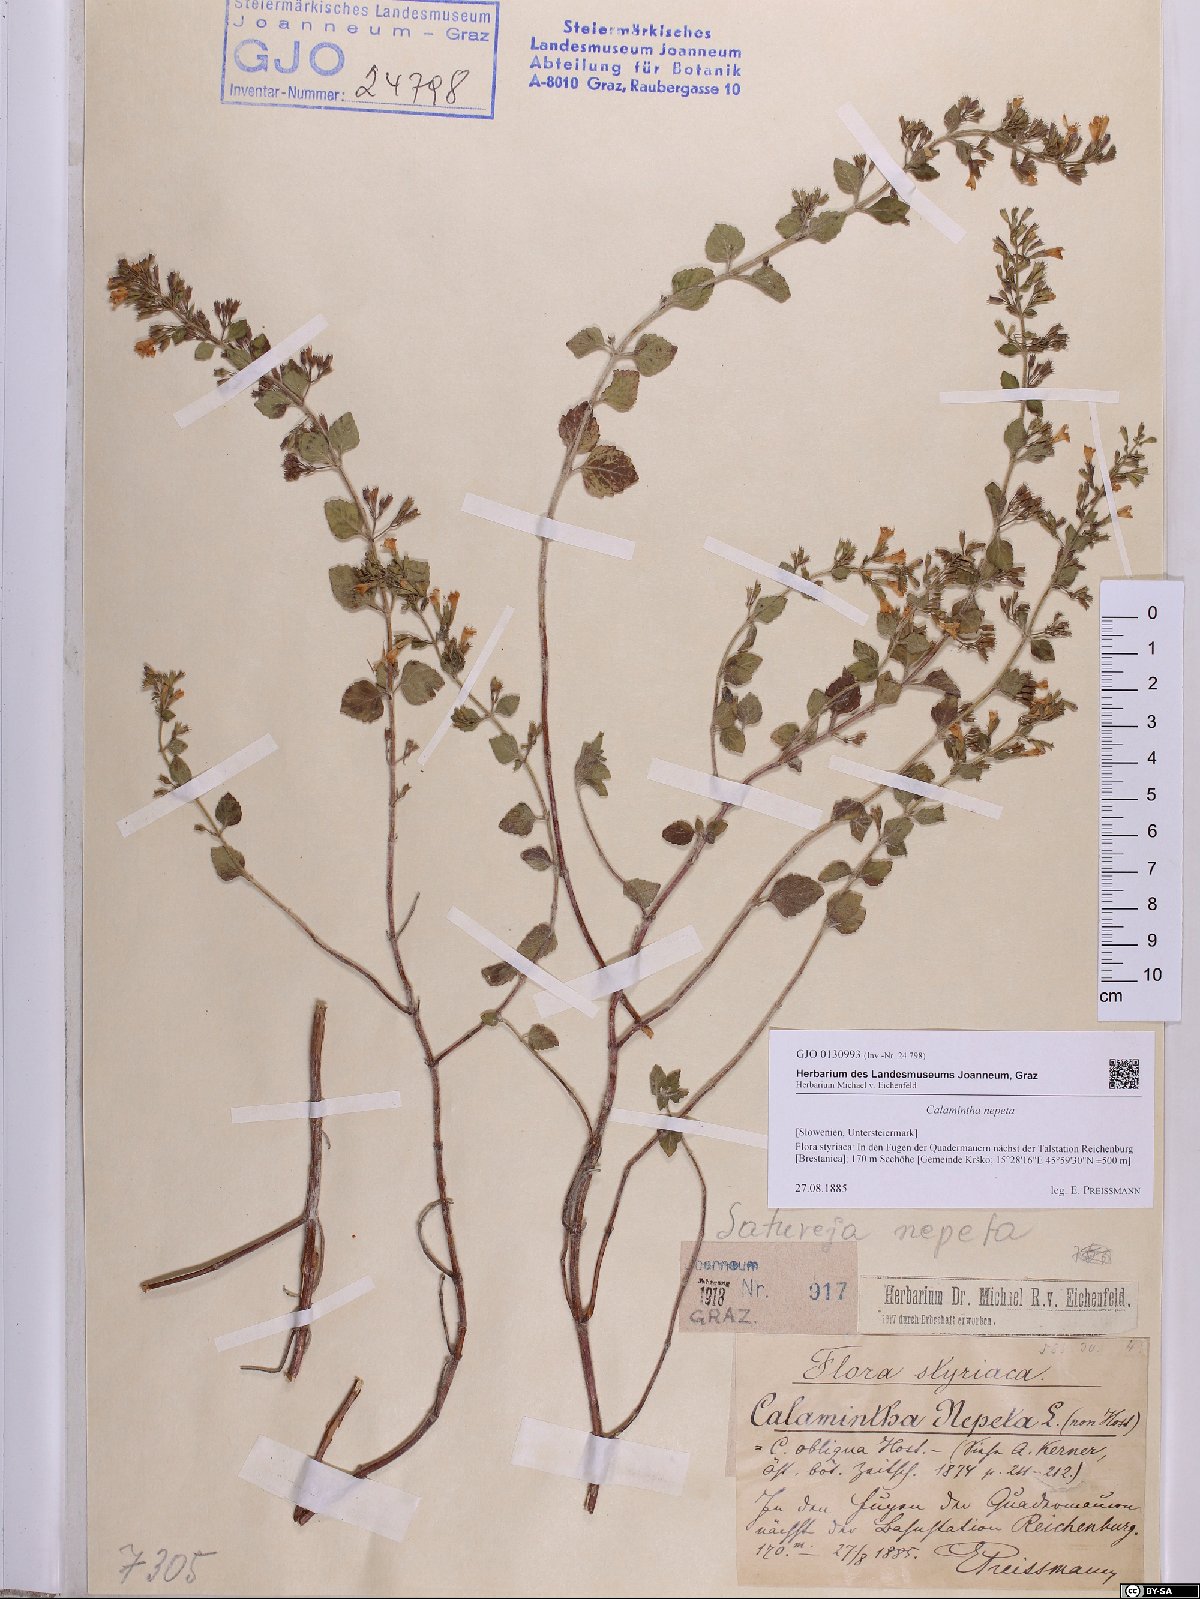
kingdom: Plantae
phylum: Tracheophyta
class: Magnoliopsida
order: Lamiales
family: Lamiaceae
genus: Clinopodium
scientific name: Clinopodium nepeta
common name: Lesser calamint
